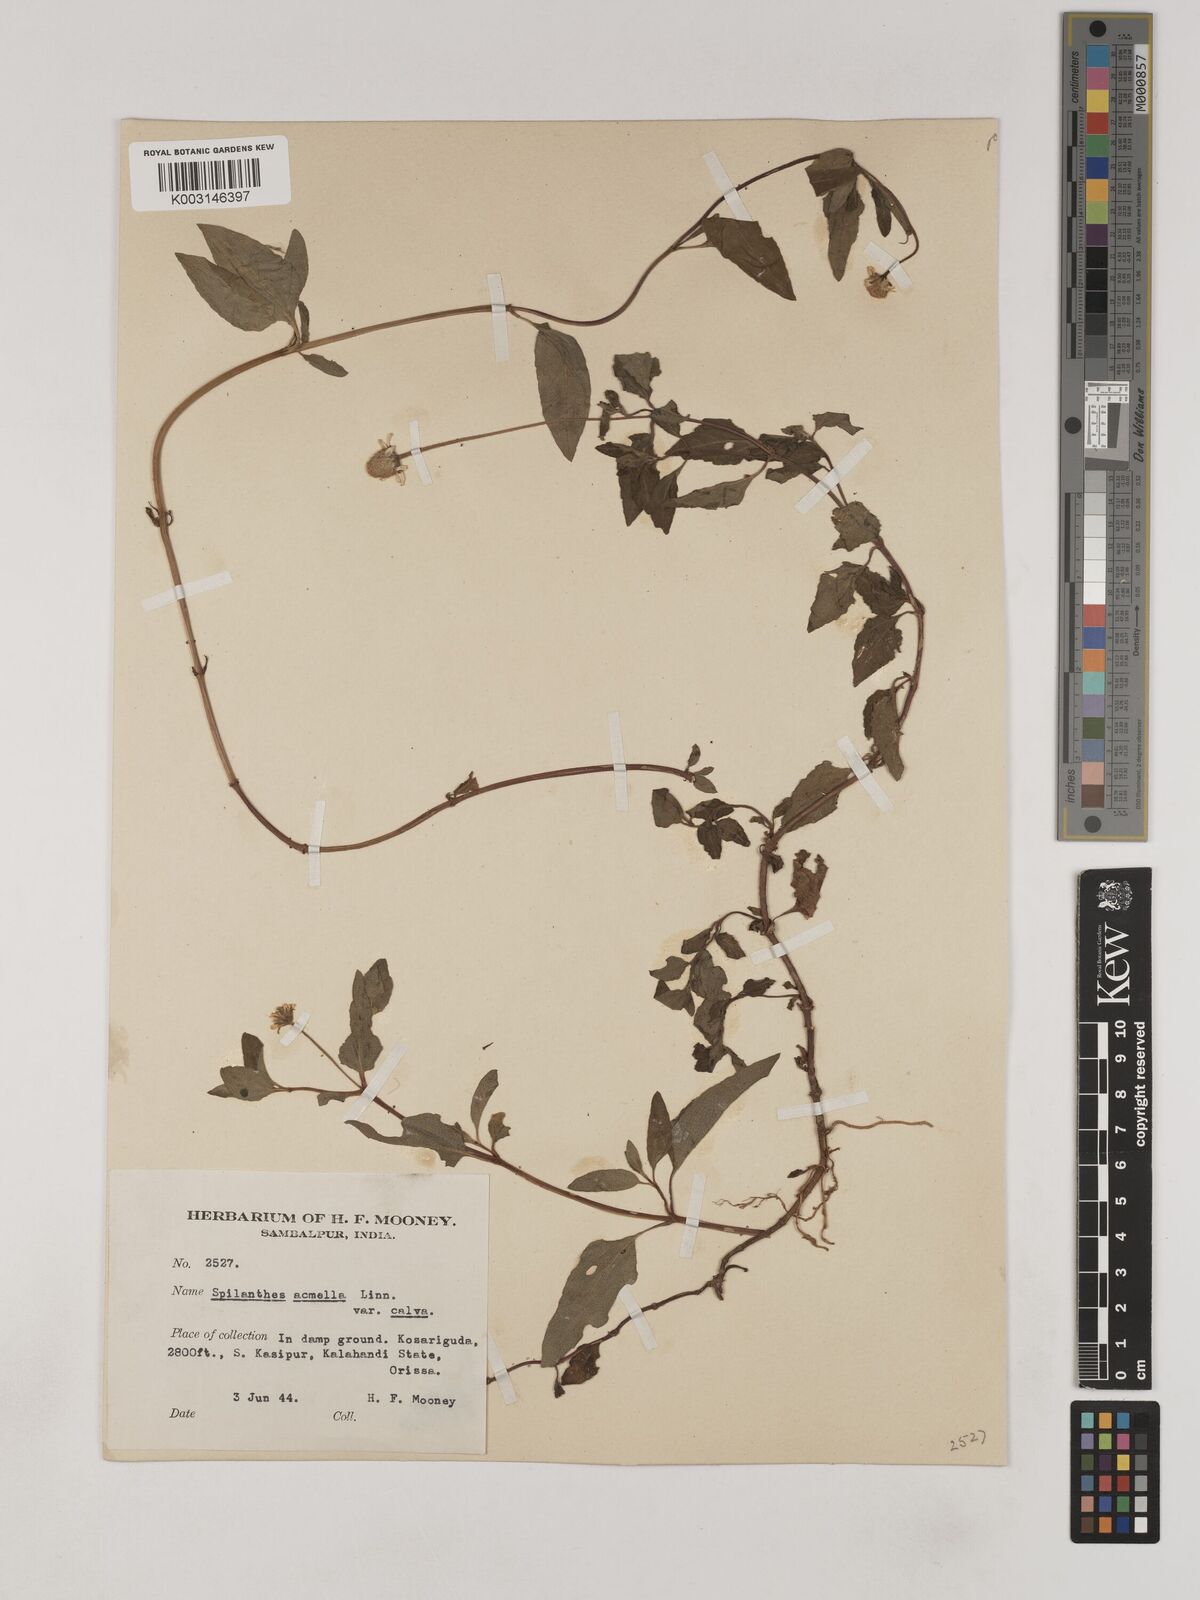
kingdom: Plantae
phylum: Tracheophyta
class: Magnoliopsida
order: Asterales
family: Asteraceae
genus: Acmella
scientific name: Acmella calva
